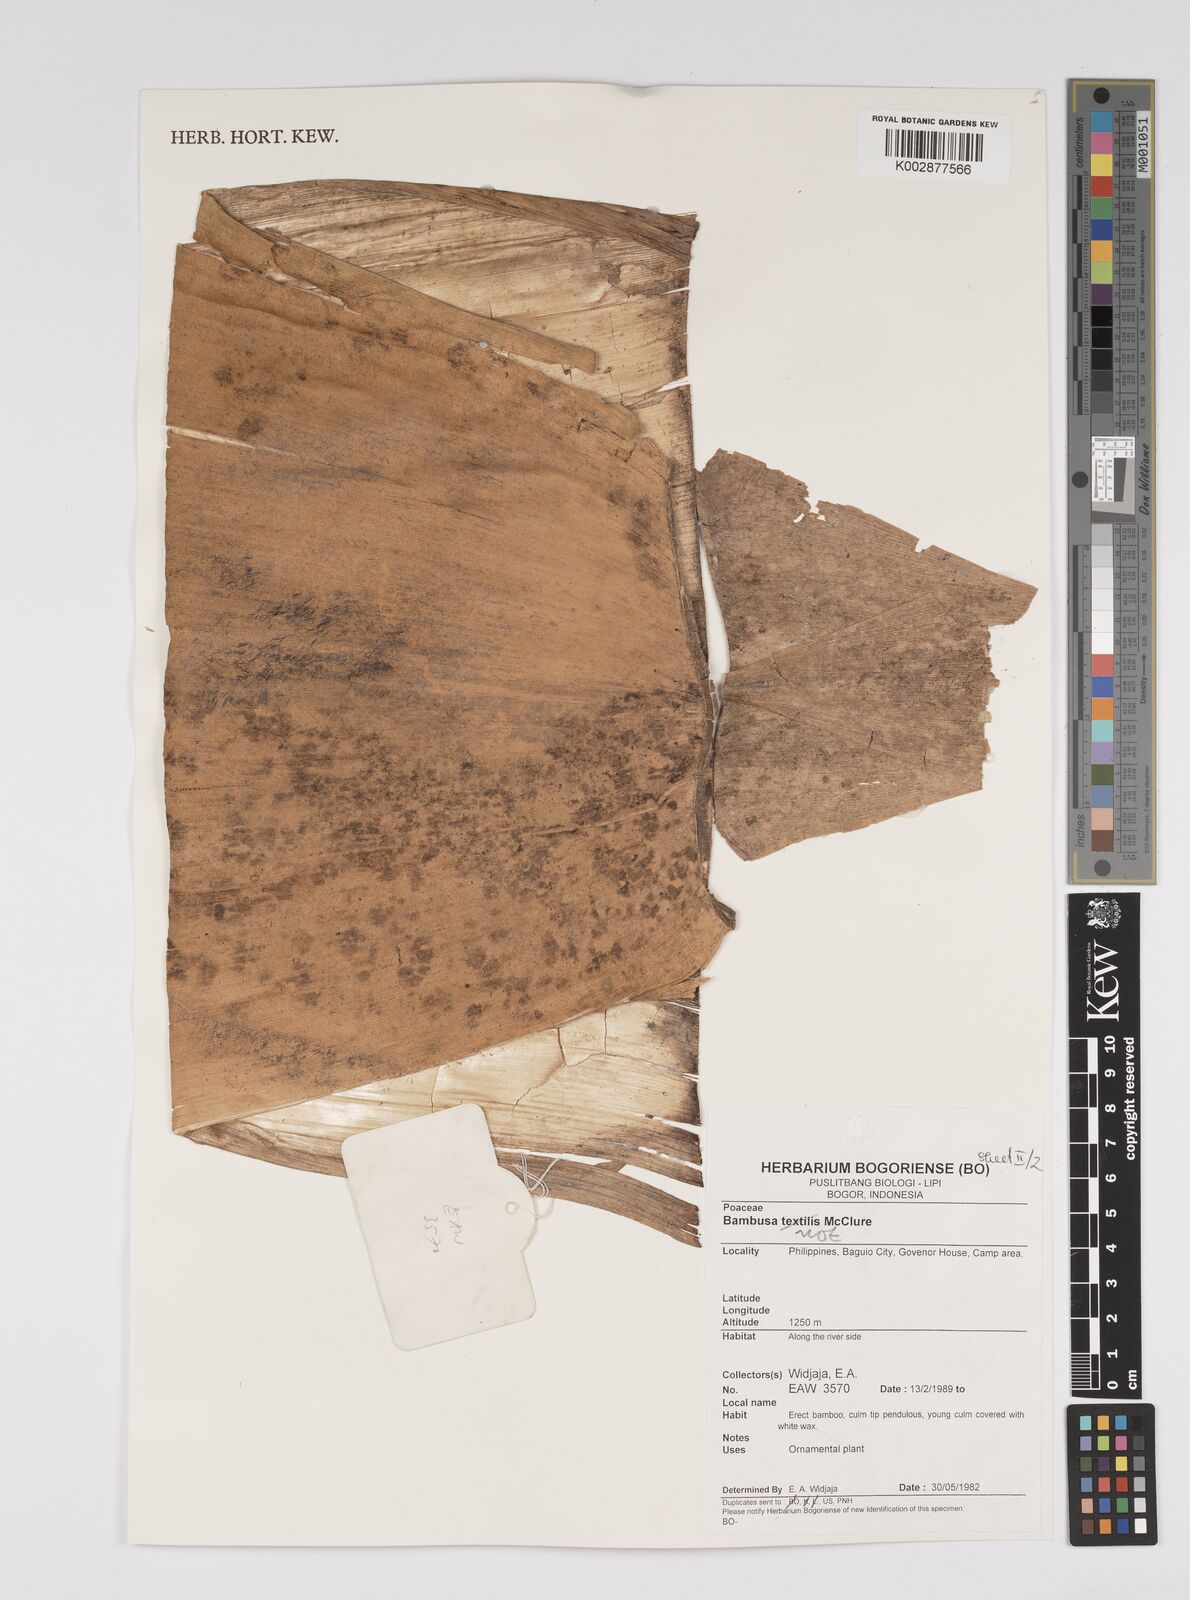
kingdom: Plantae
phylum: Tracheophyta
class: Liliopsida
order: Poales
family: Poaceae
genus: Bambusa
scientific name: Bambusa
